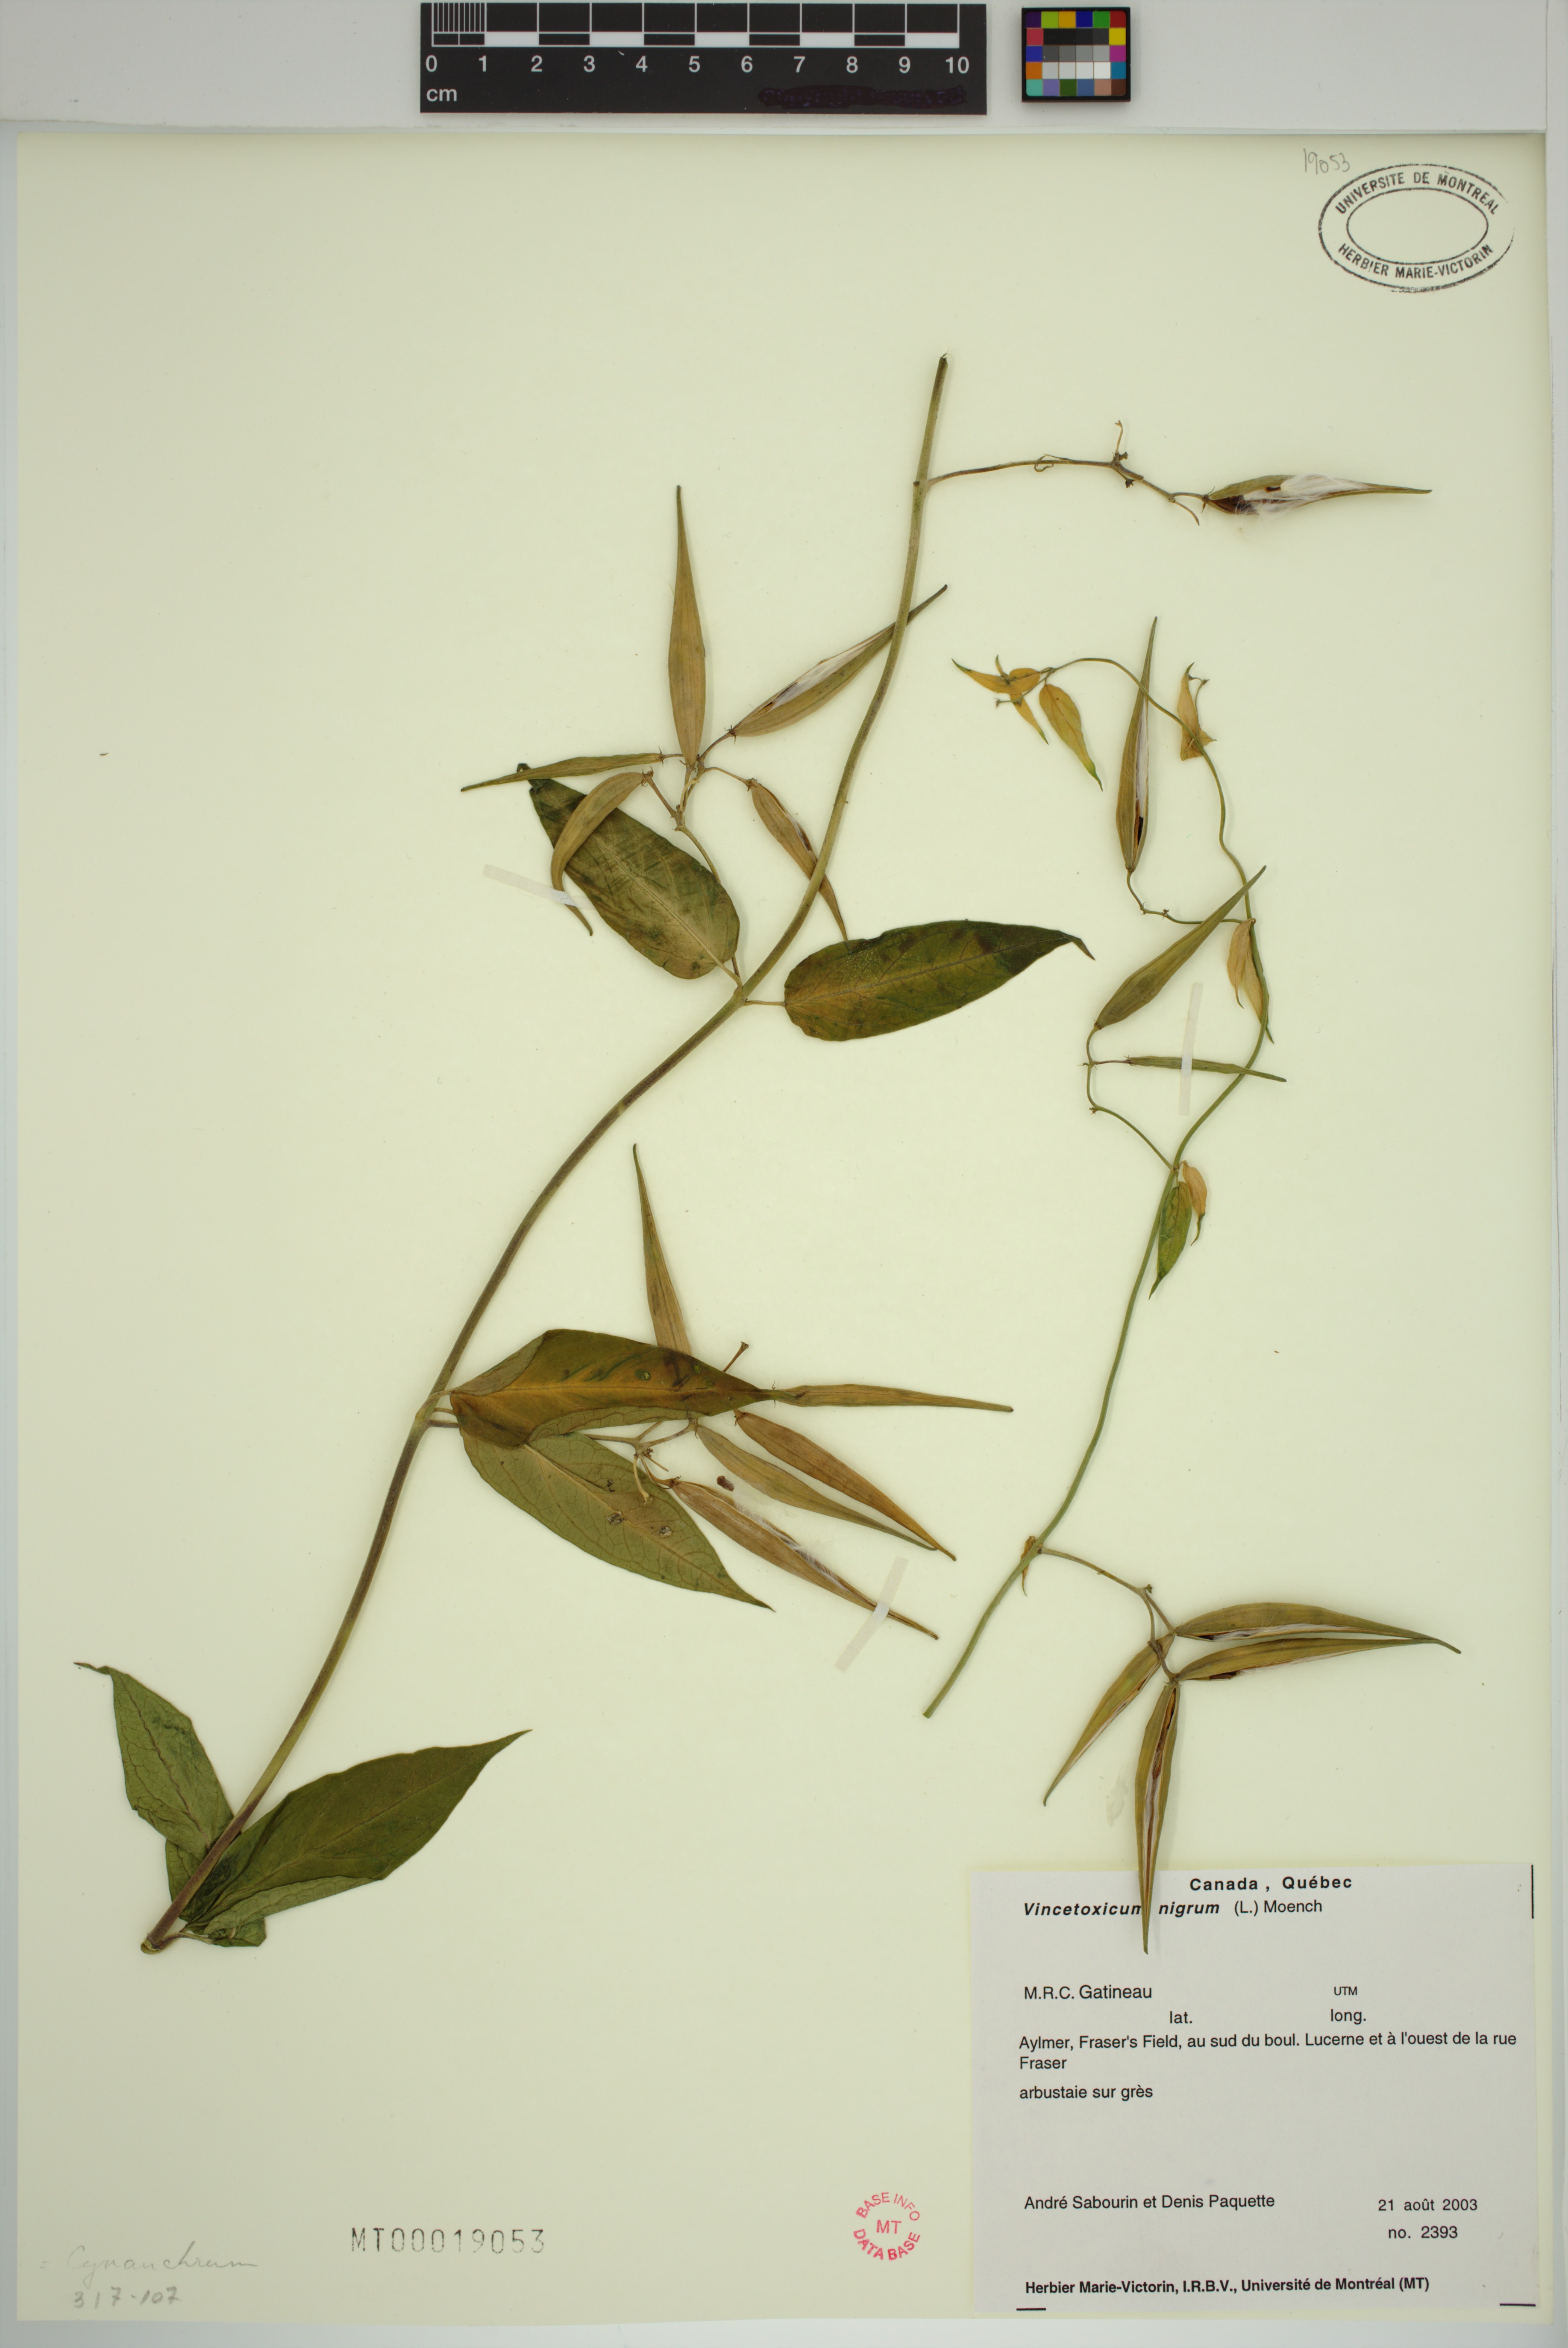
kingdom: Plantae
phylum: Tracheophyta
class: Magnoliopsida
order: Gentianales
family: Apocynaceae
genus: Vincetoxicum
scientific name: Vincetoxicum nigrum
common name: Black swallow-wort
